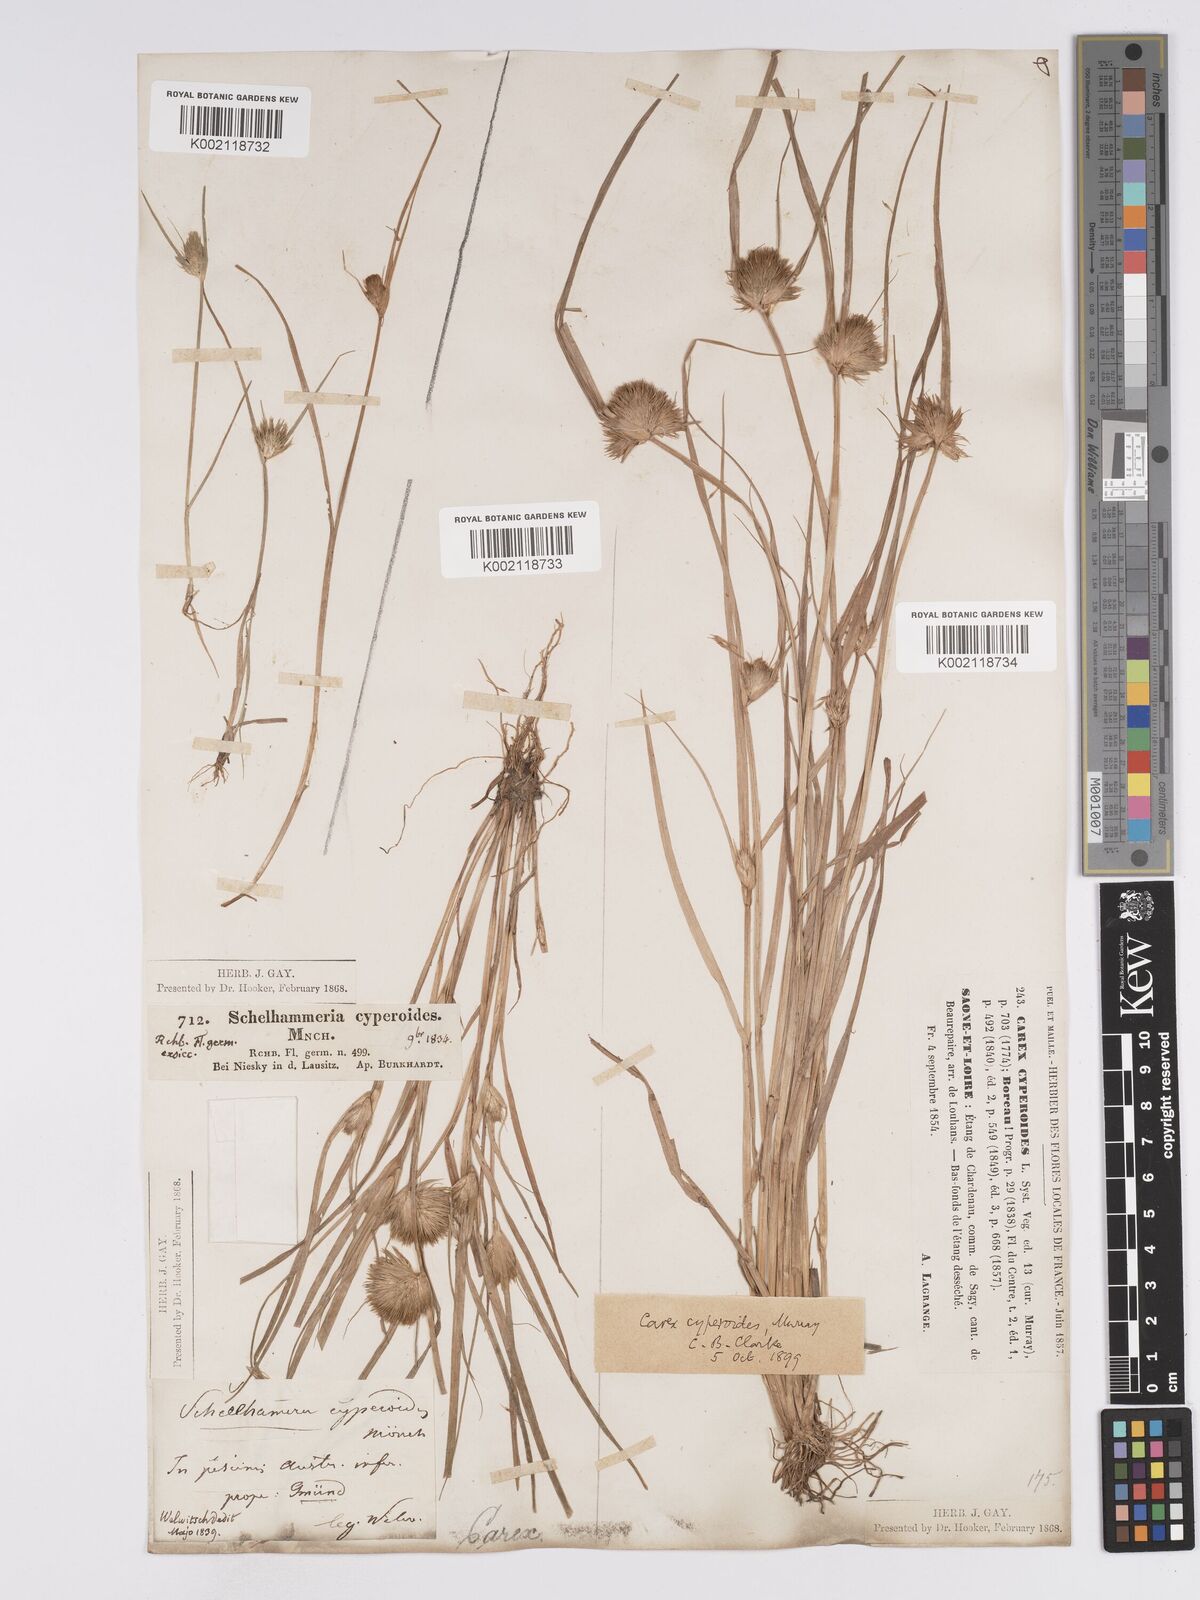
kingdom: Plantae
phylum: Tracheophyta
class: Liliopsida
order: Poales
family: Cyperaceae
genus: Carex
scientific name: Carex bohemica
